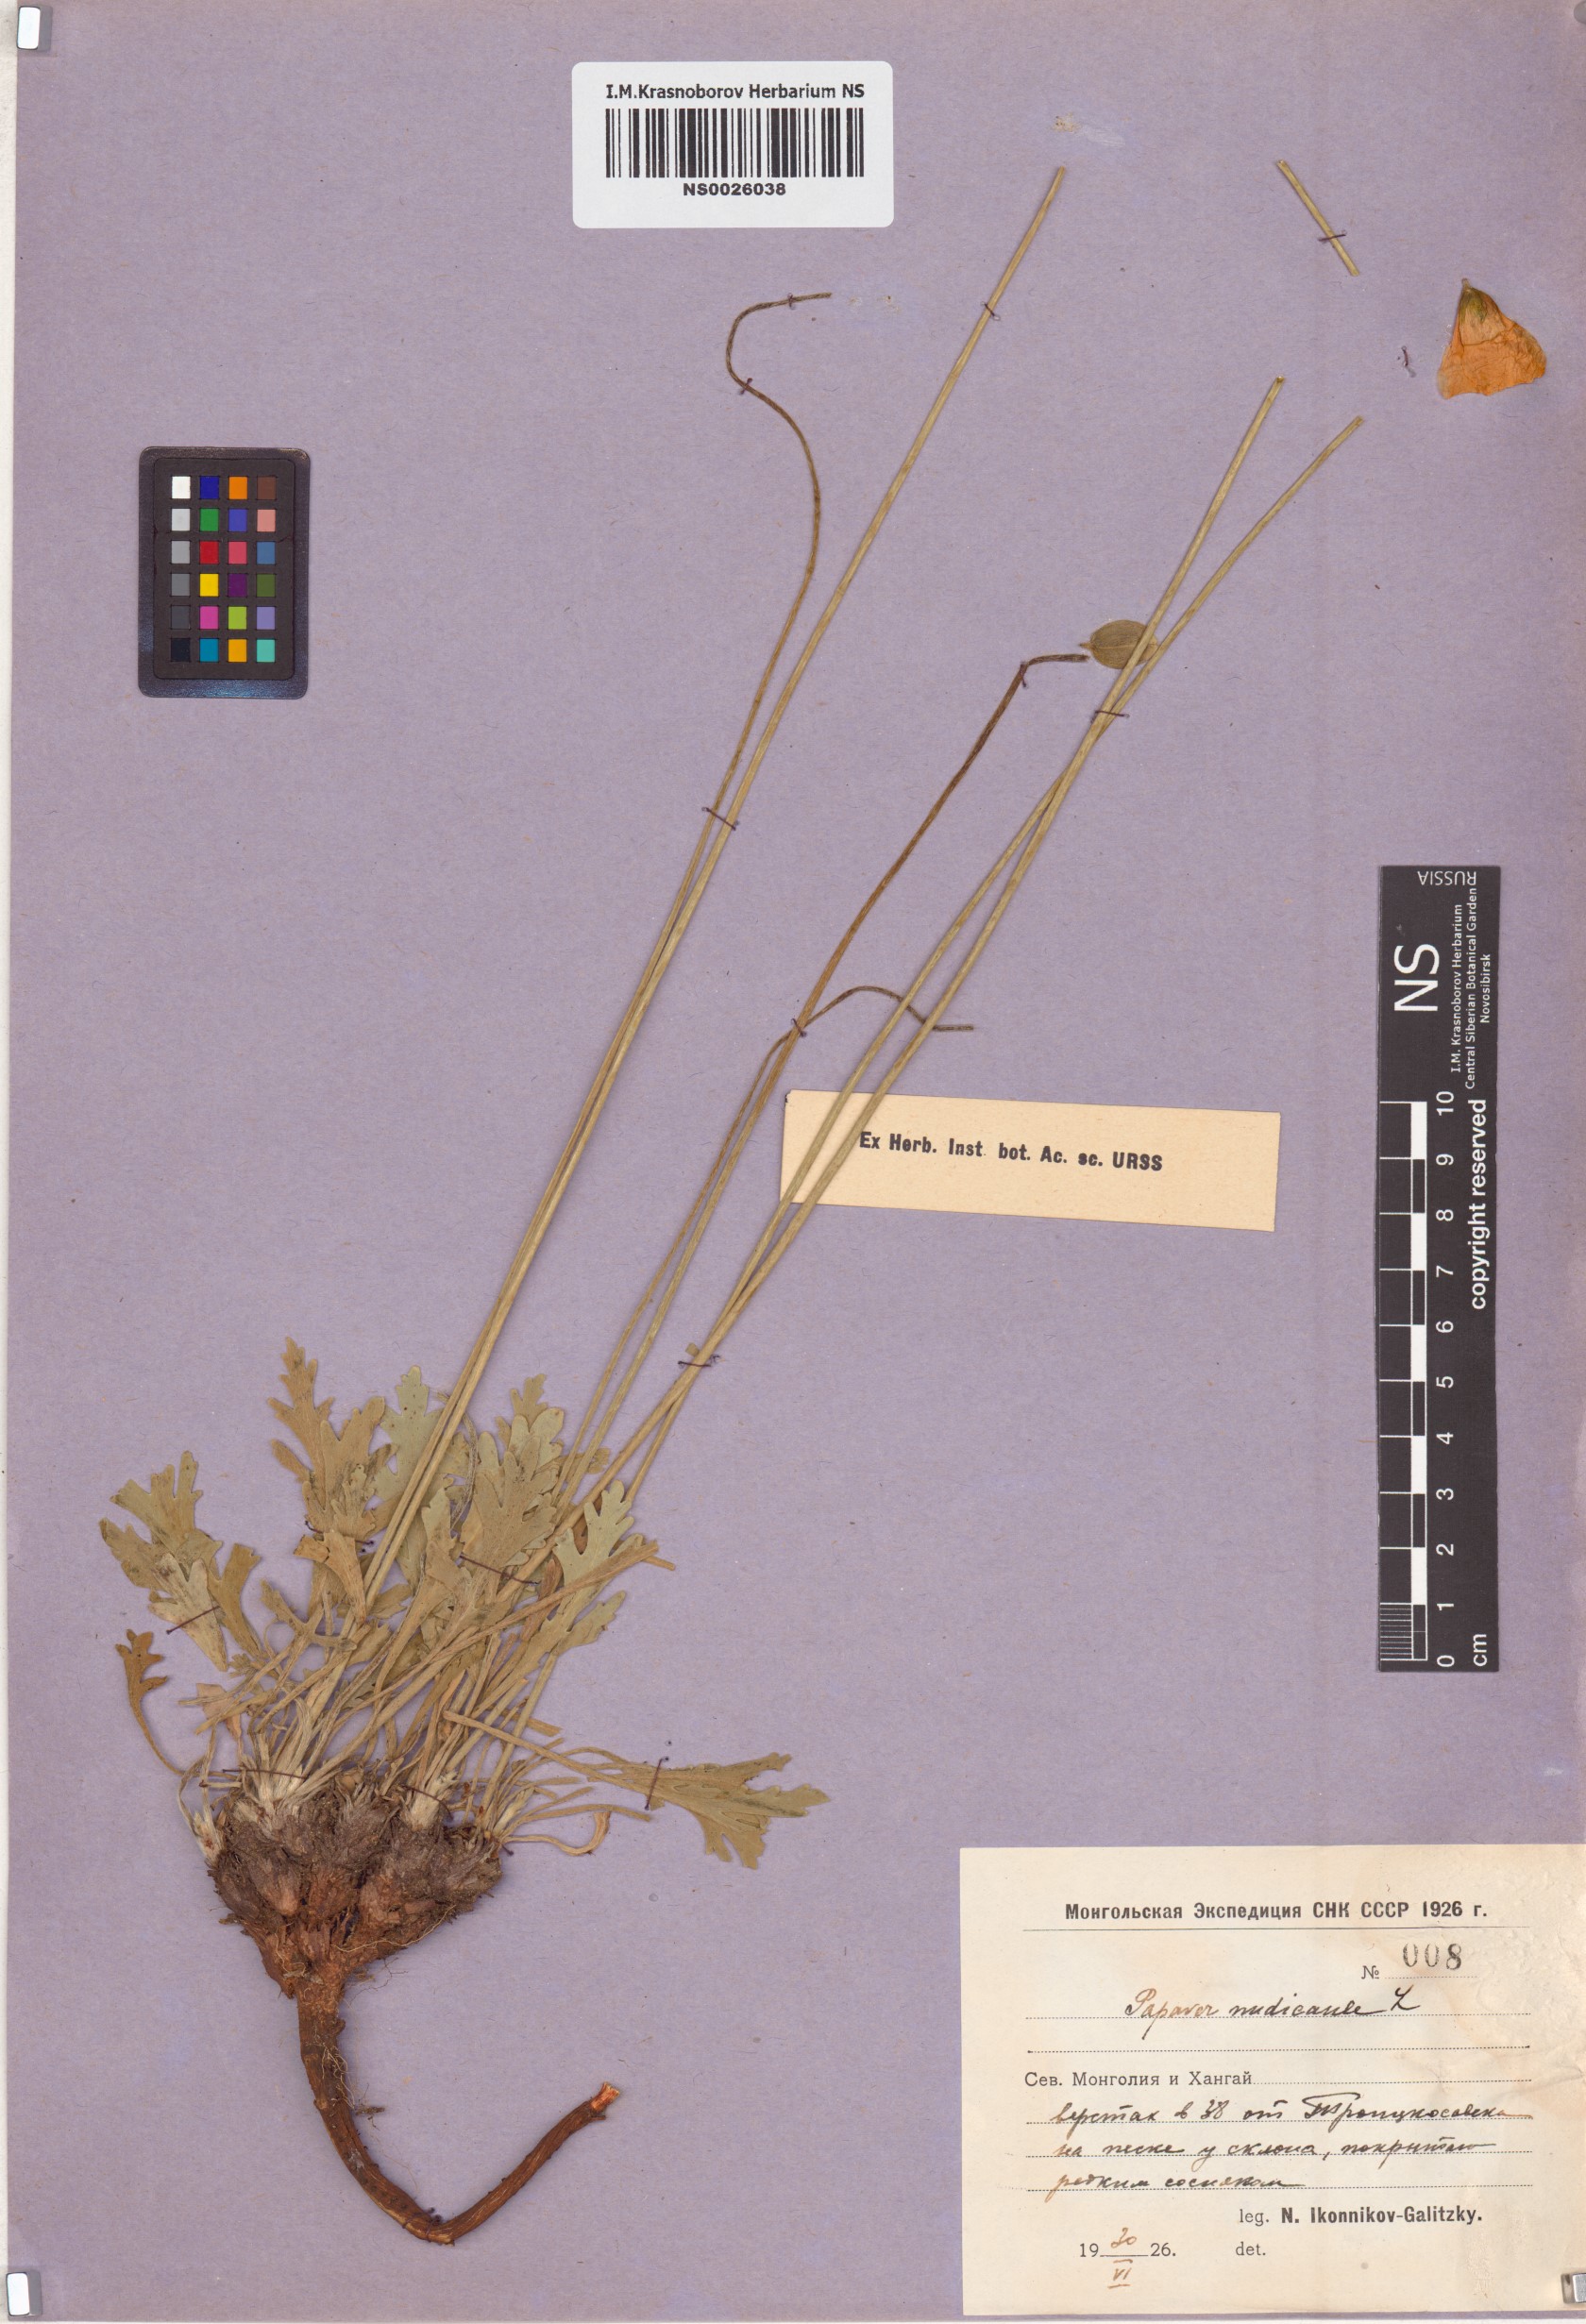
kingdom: Plantae
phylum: Tracheophyta
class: Magnoliopsida
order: Ranunculales
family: Papaveraceae
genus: Papaver
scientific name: Papaver nudicaule
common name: Arctic poppy
